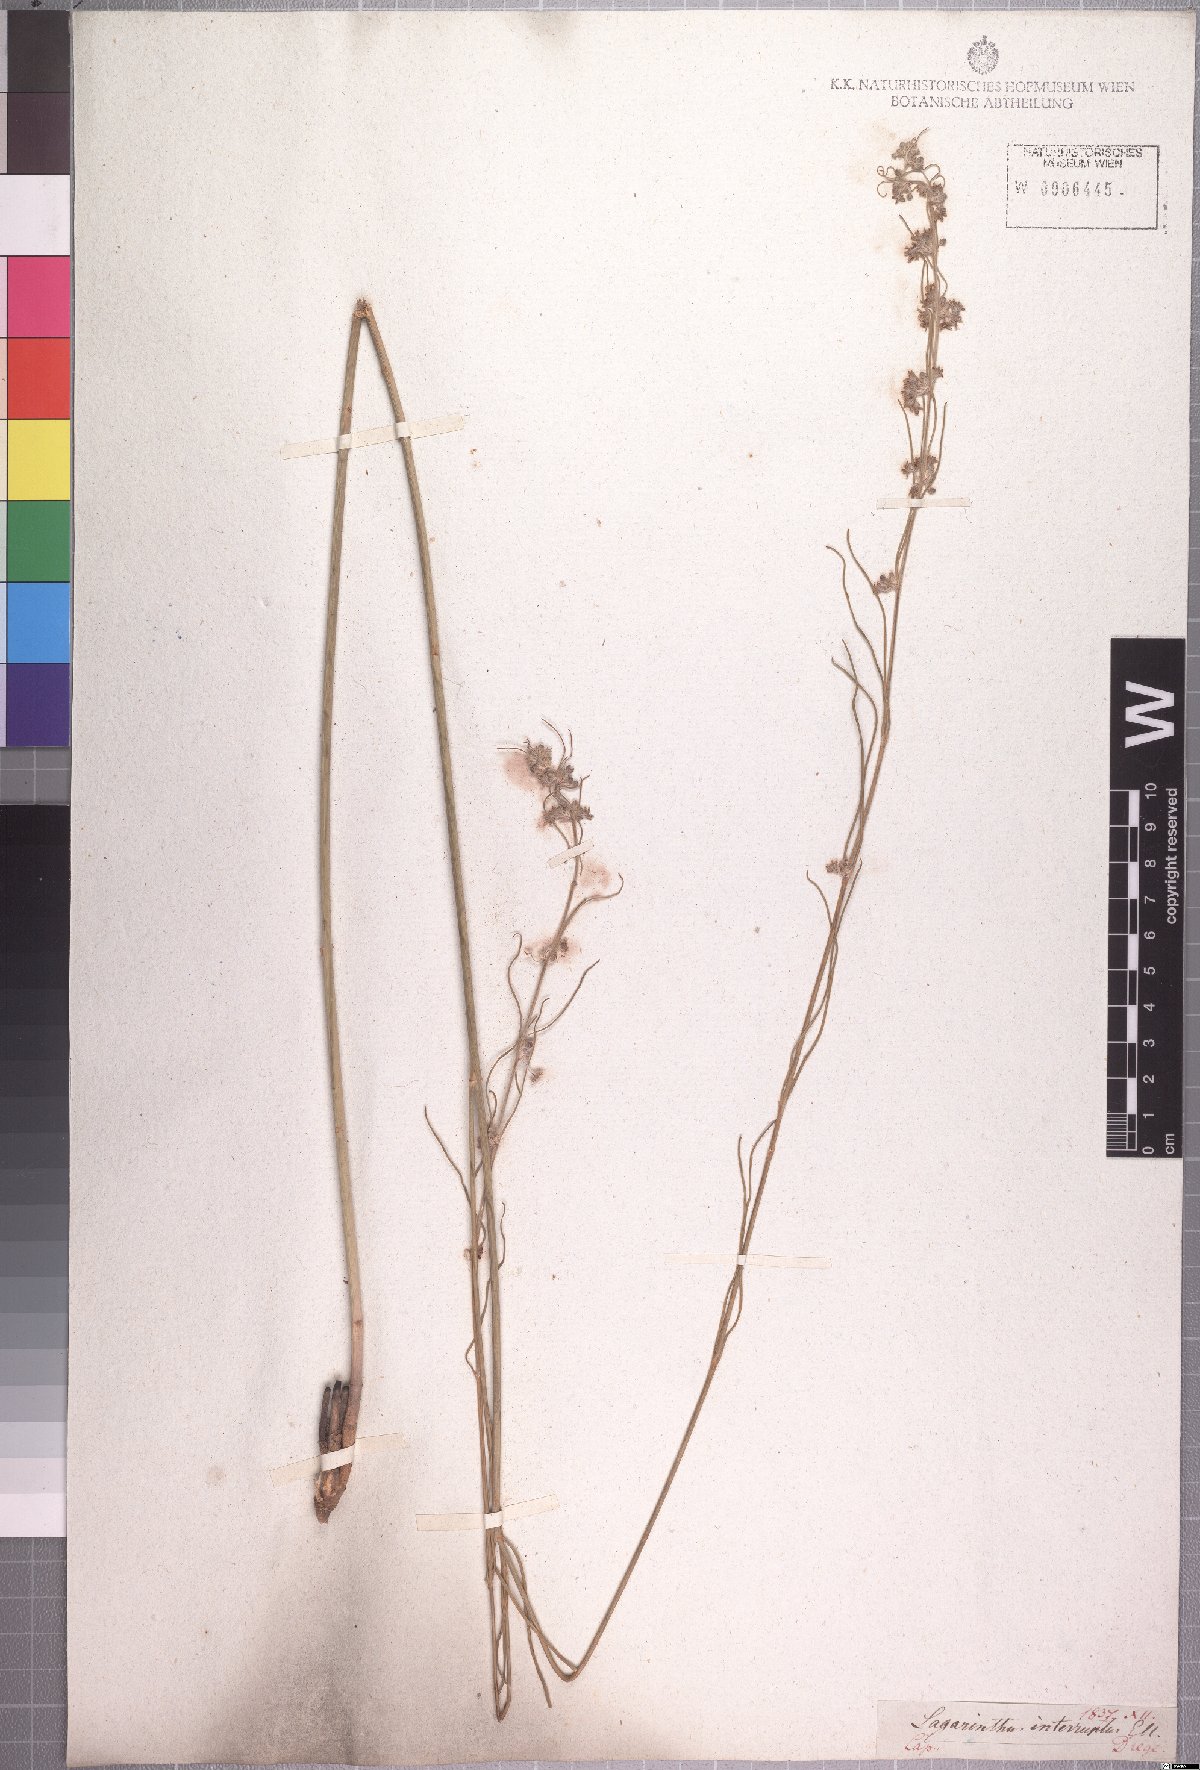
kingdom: Plantae
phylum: Tracheophyta
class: Magnoliopsida
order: Gentianales
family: Apocynaceae
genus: Aspidoglossum
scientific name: Aspidoglossum interruptum
